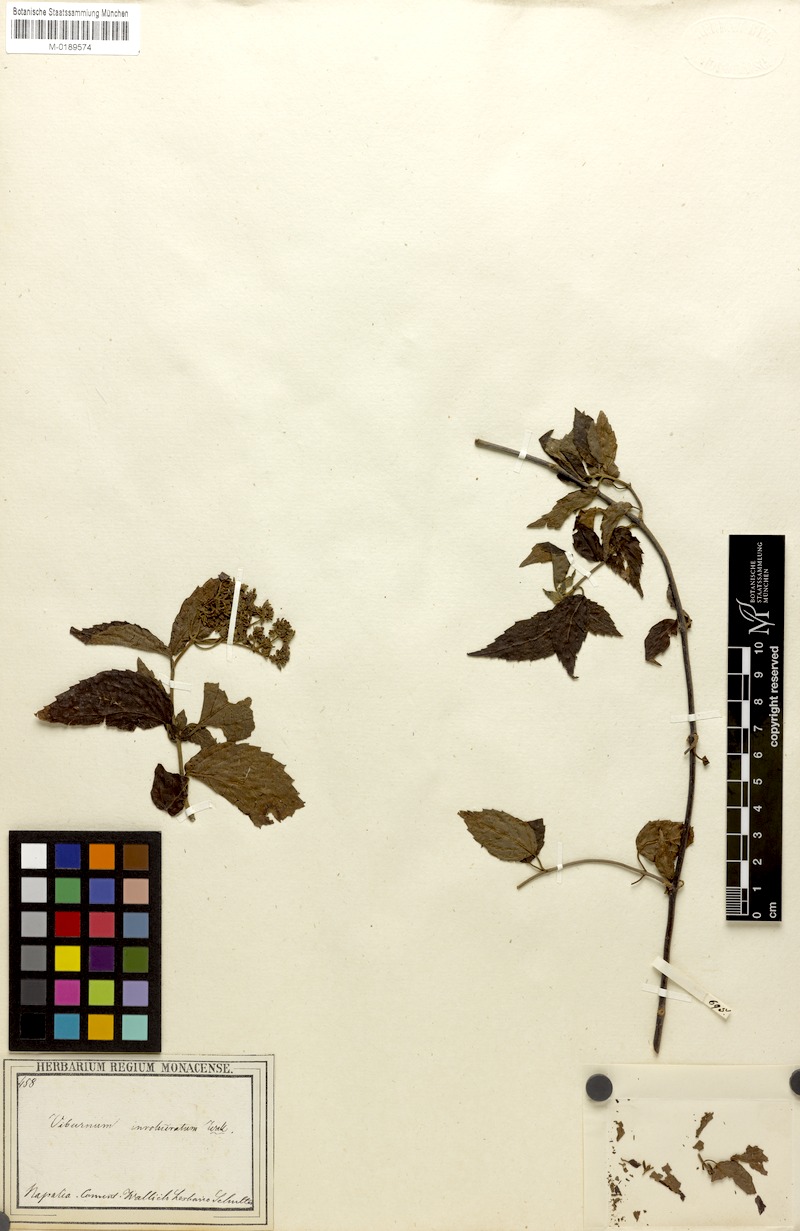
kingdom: Plantae
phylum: Tracheophyta
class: Magnoliopsida
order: Dipsacales
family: Viburnaceae
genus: Viburnum
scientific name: Viburnum mullaha
